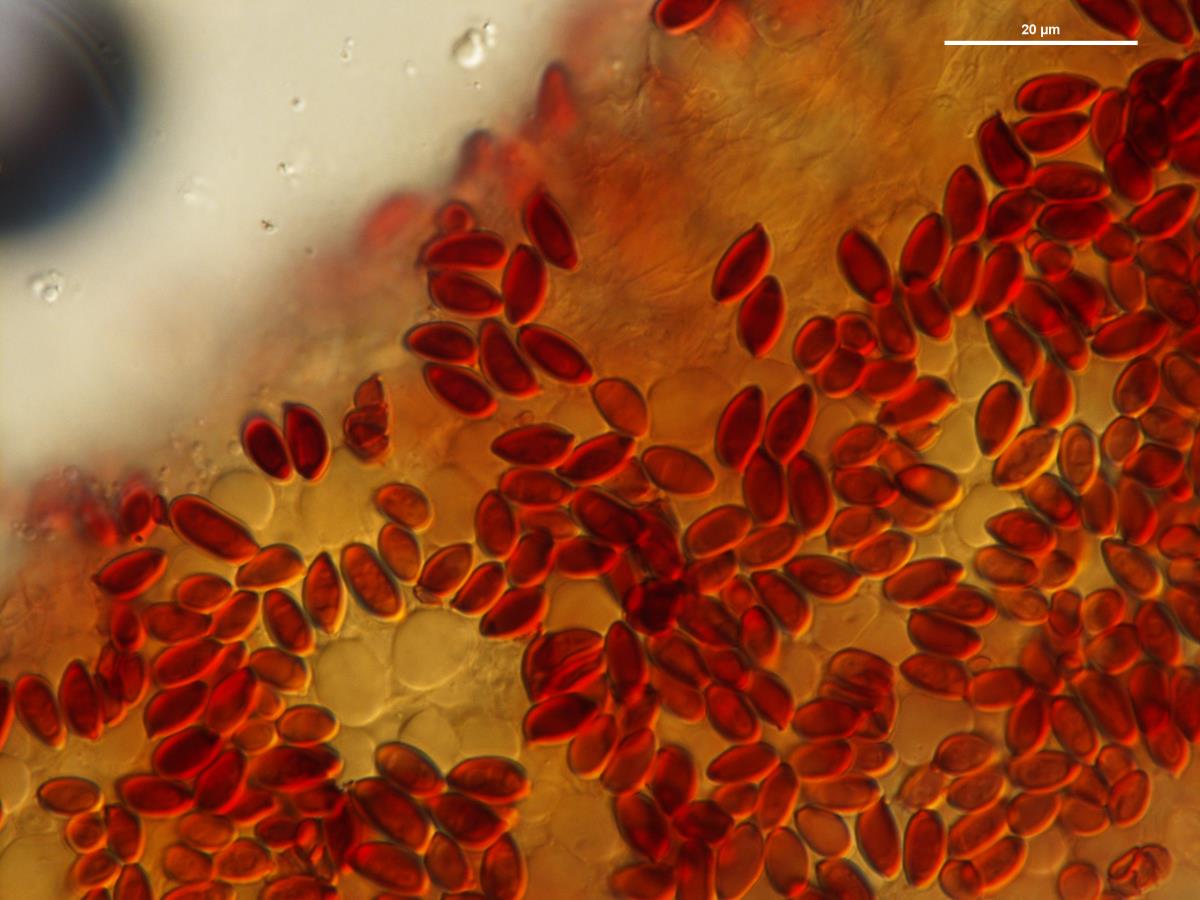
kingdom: Fungi
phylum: Basidiomycota
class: Agaricomycetes
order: Agaricales
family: Agaricaceae
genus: Leucoagaricus
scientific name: Leucoagaricus
